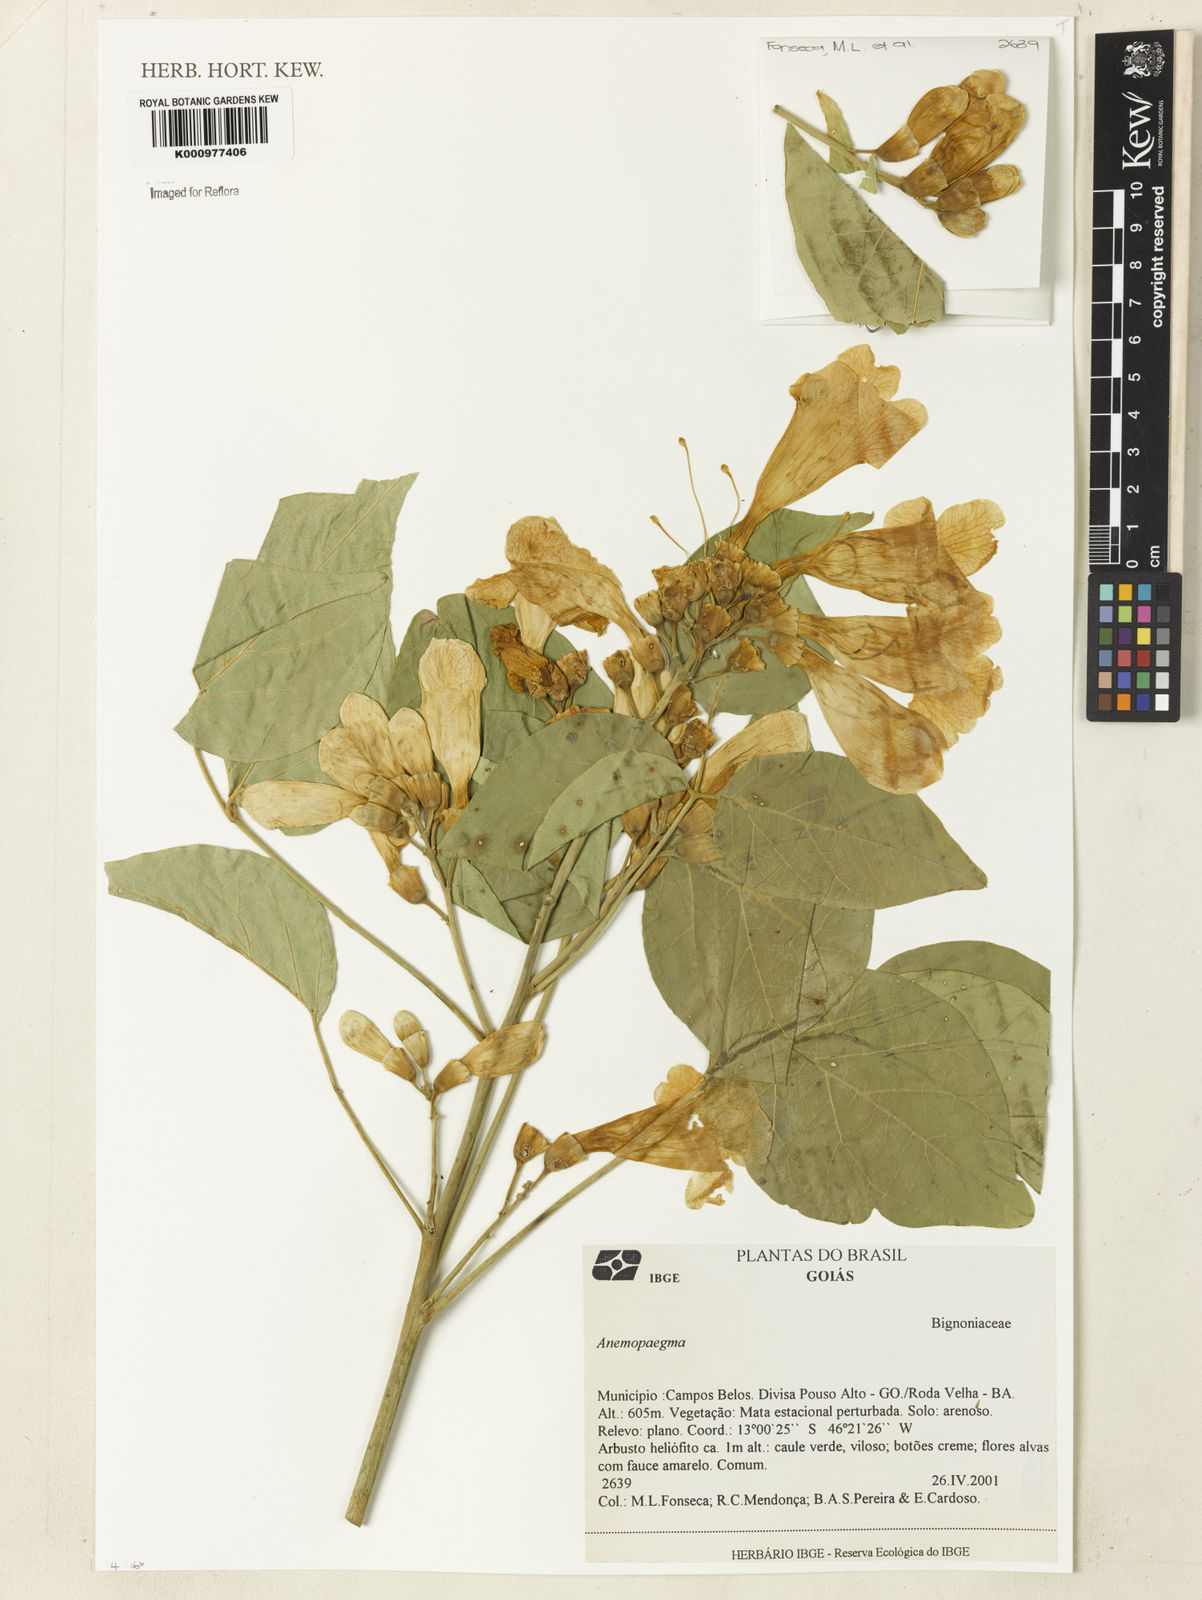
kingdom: Plantae
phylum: Tracheophyta
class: Magnoliopsida
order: Lamiales
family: Bignoniaceae
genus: Anemopaegma
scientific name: Anemopaegma longipetiolatum
